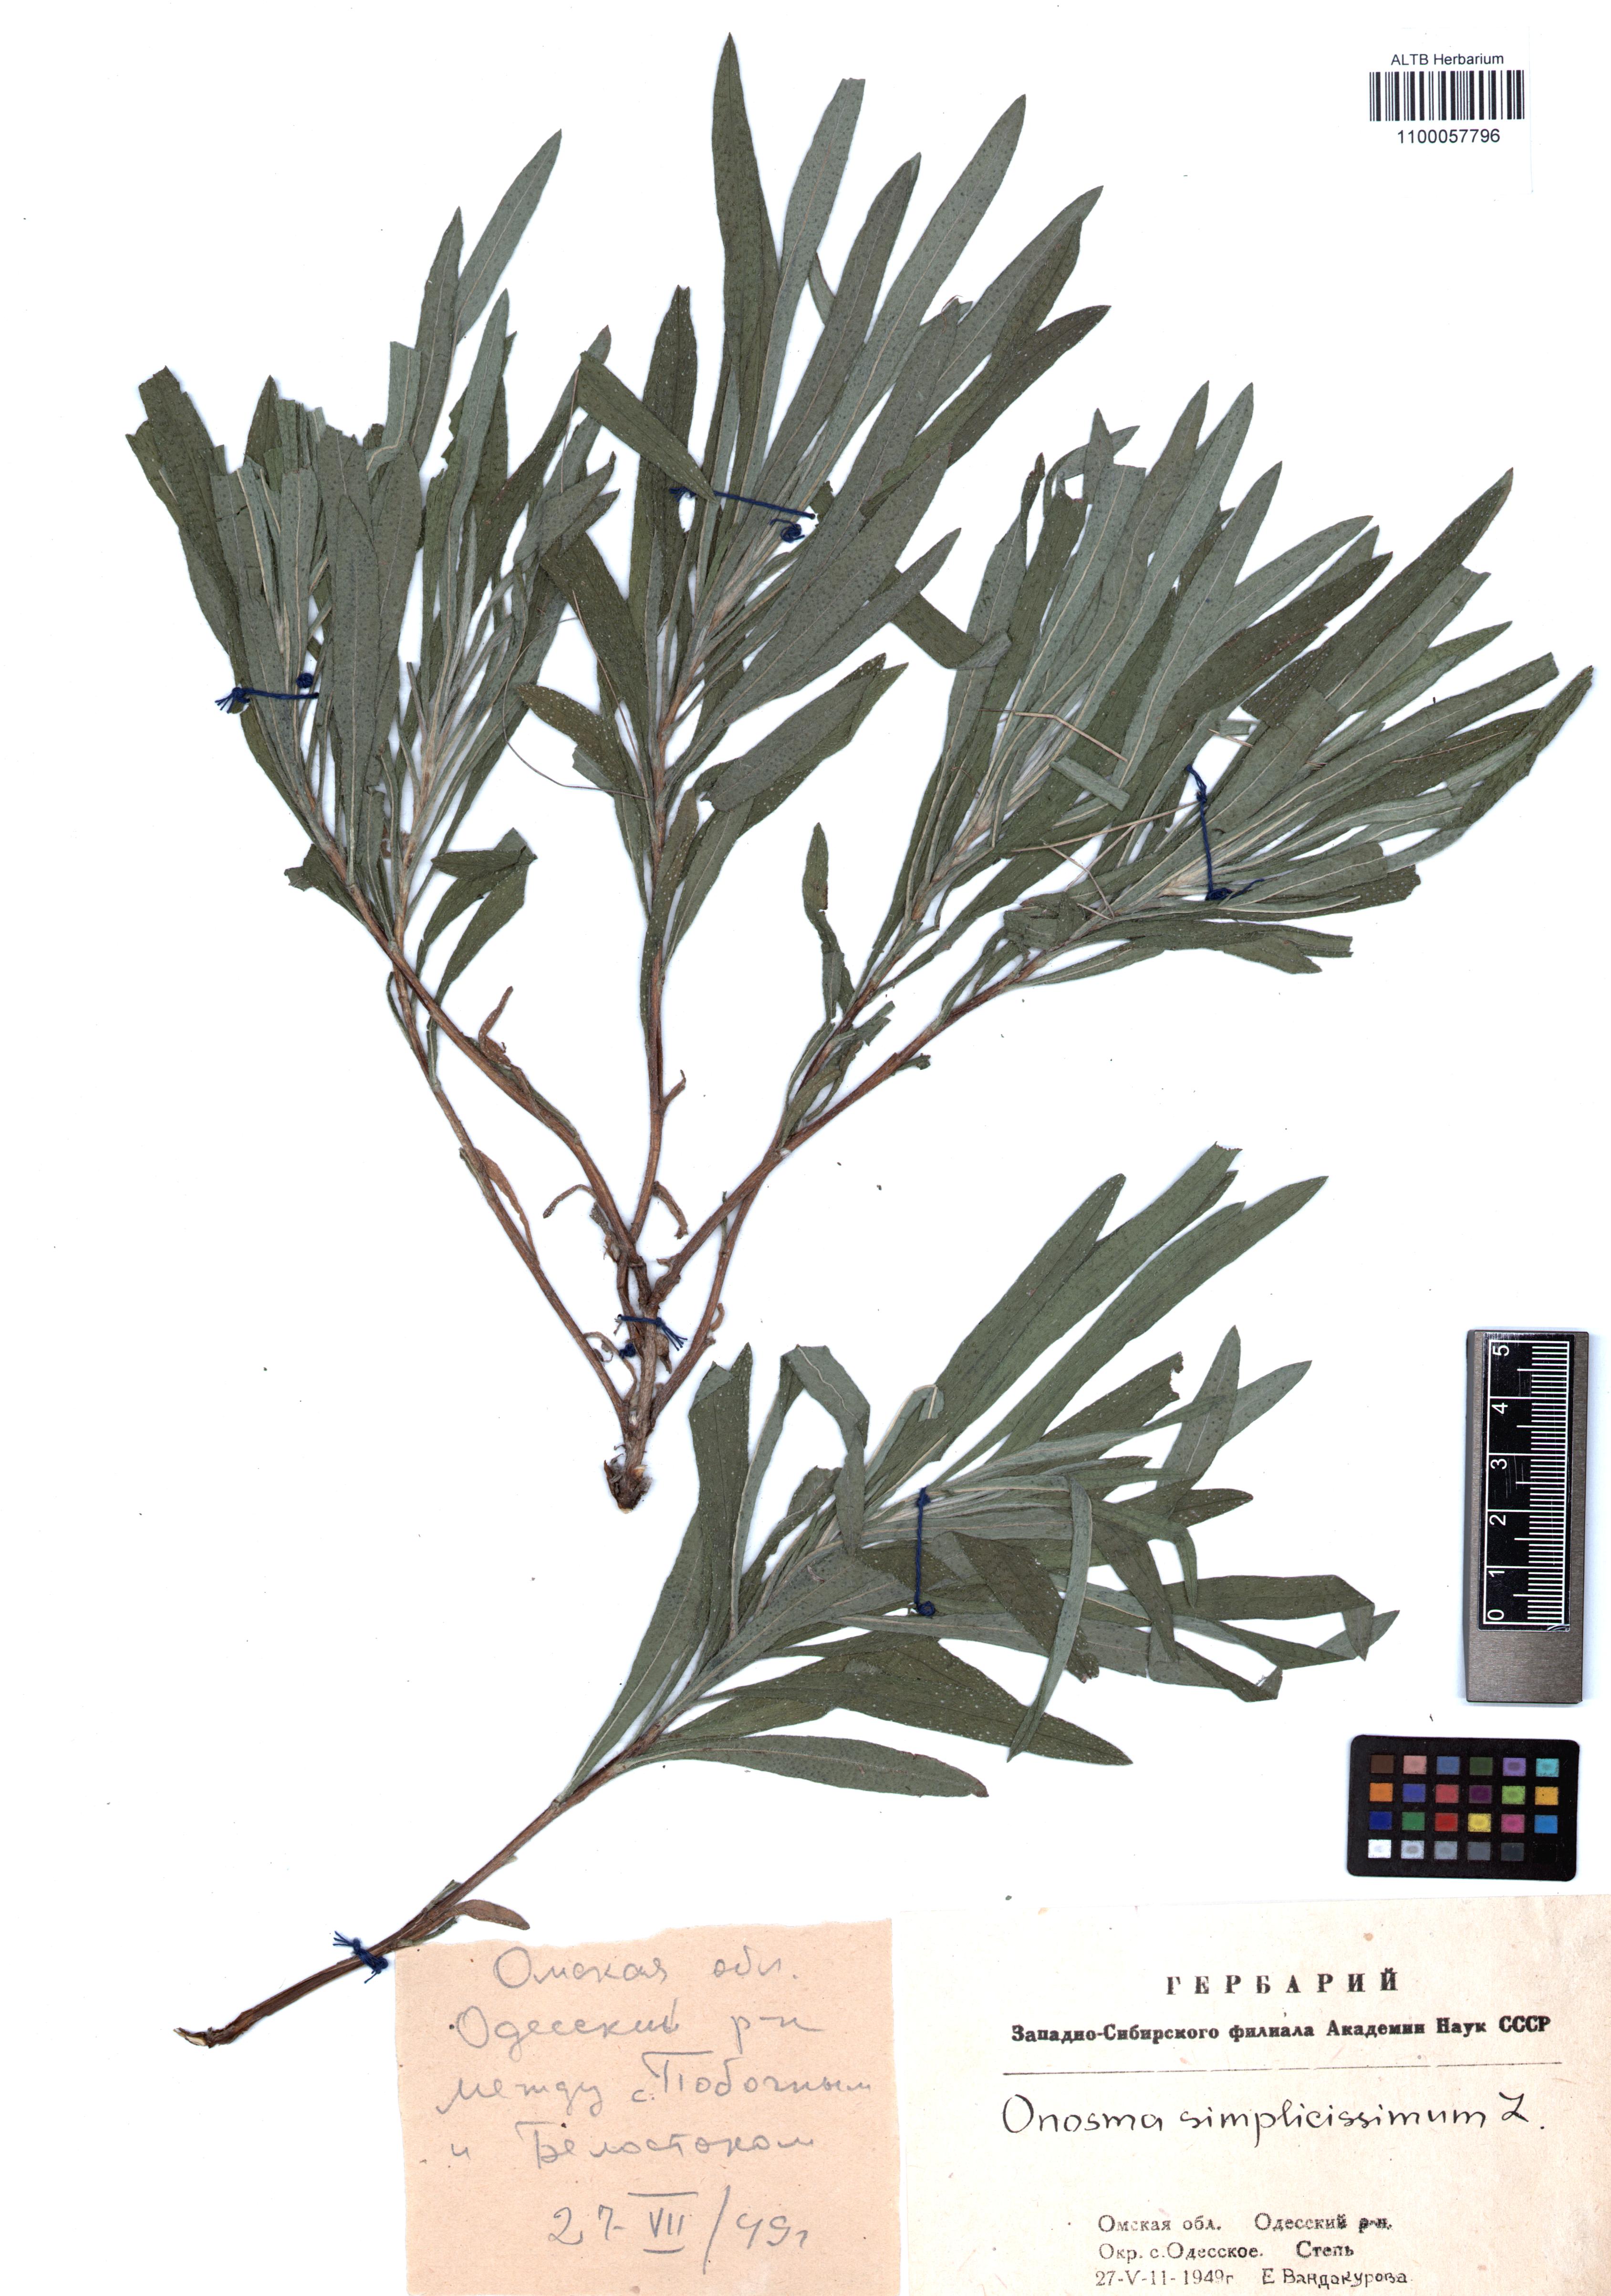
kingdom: Plantae
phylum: Tracheophyta
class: Magnoliopsida
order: Boraginales
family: Boraginaceae
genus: Onosma
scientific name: Onosma simplicissima
